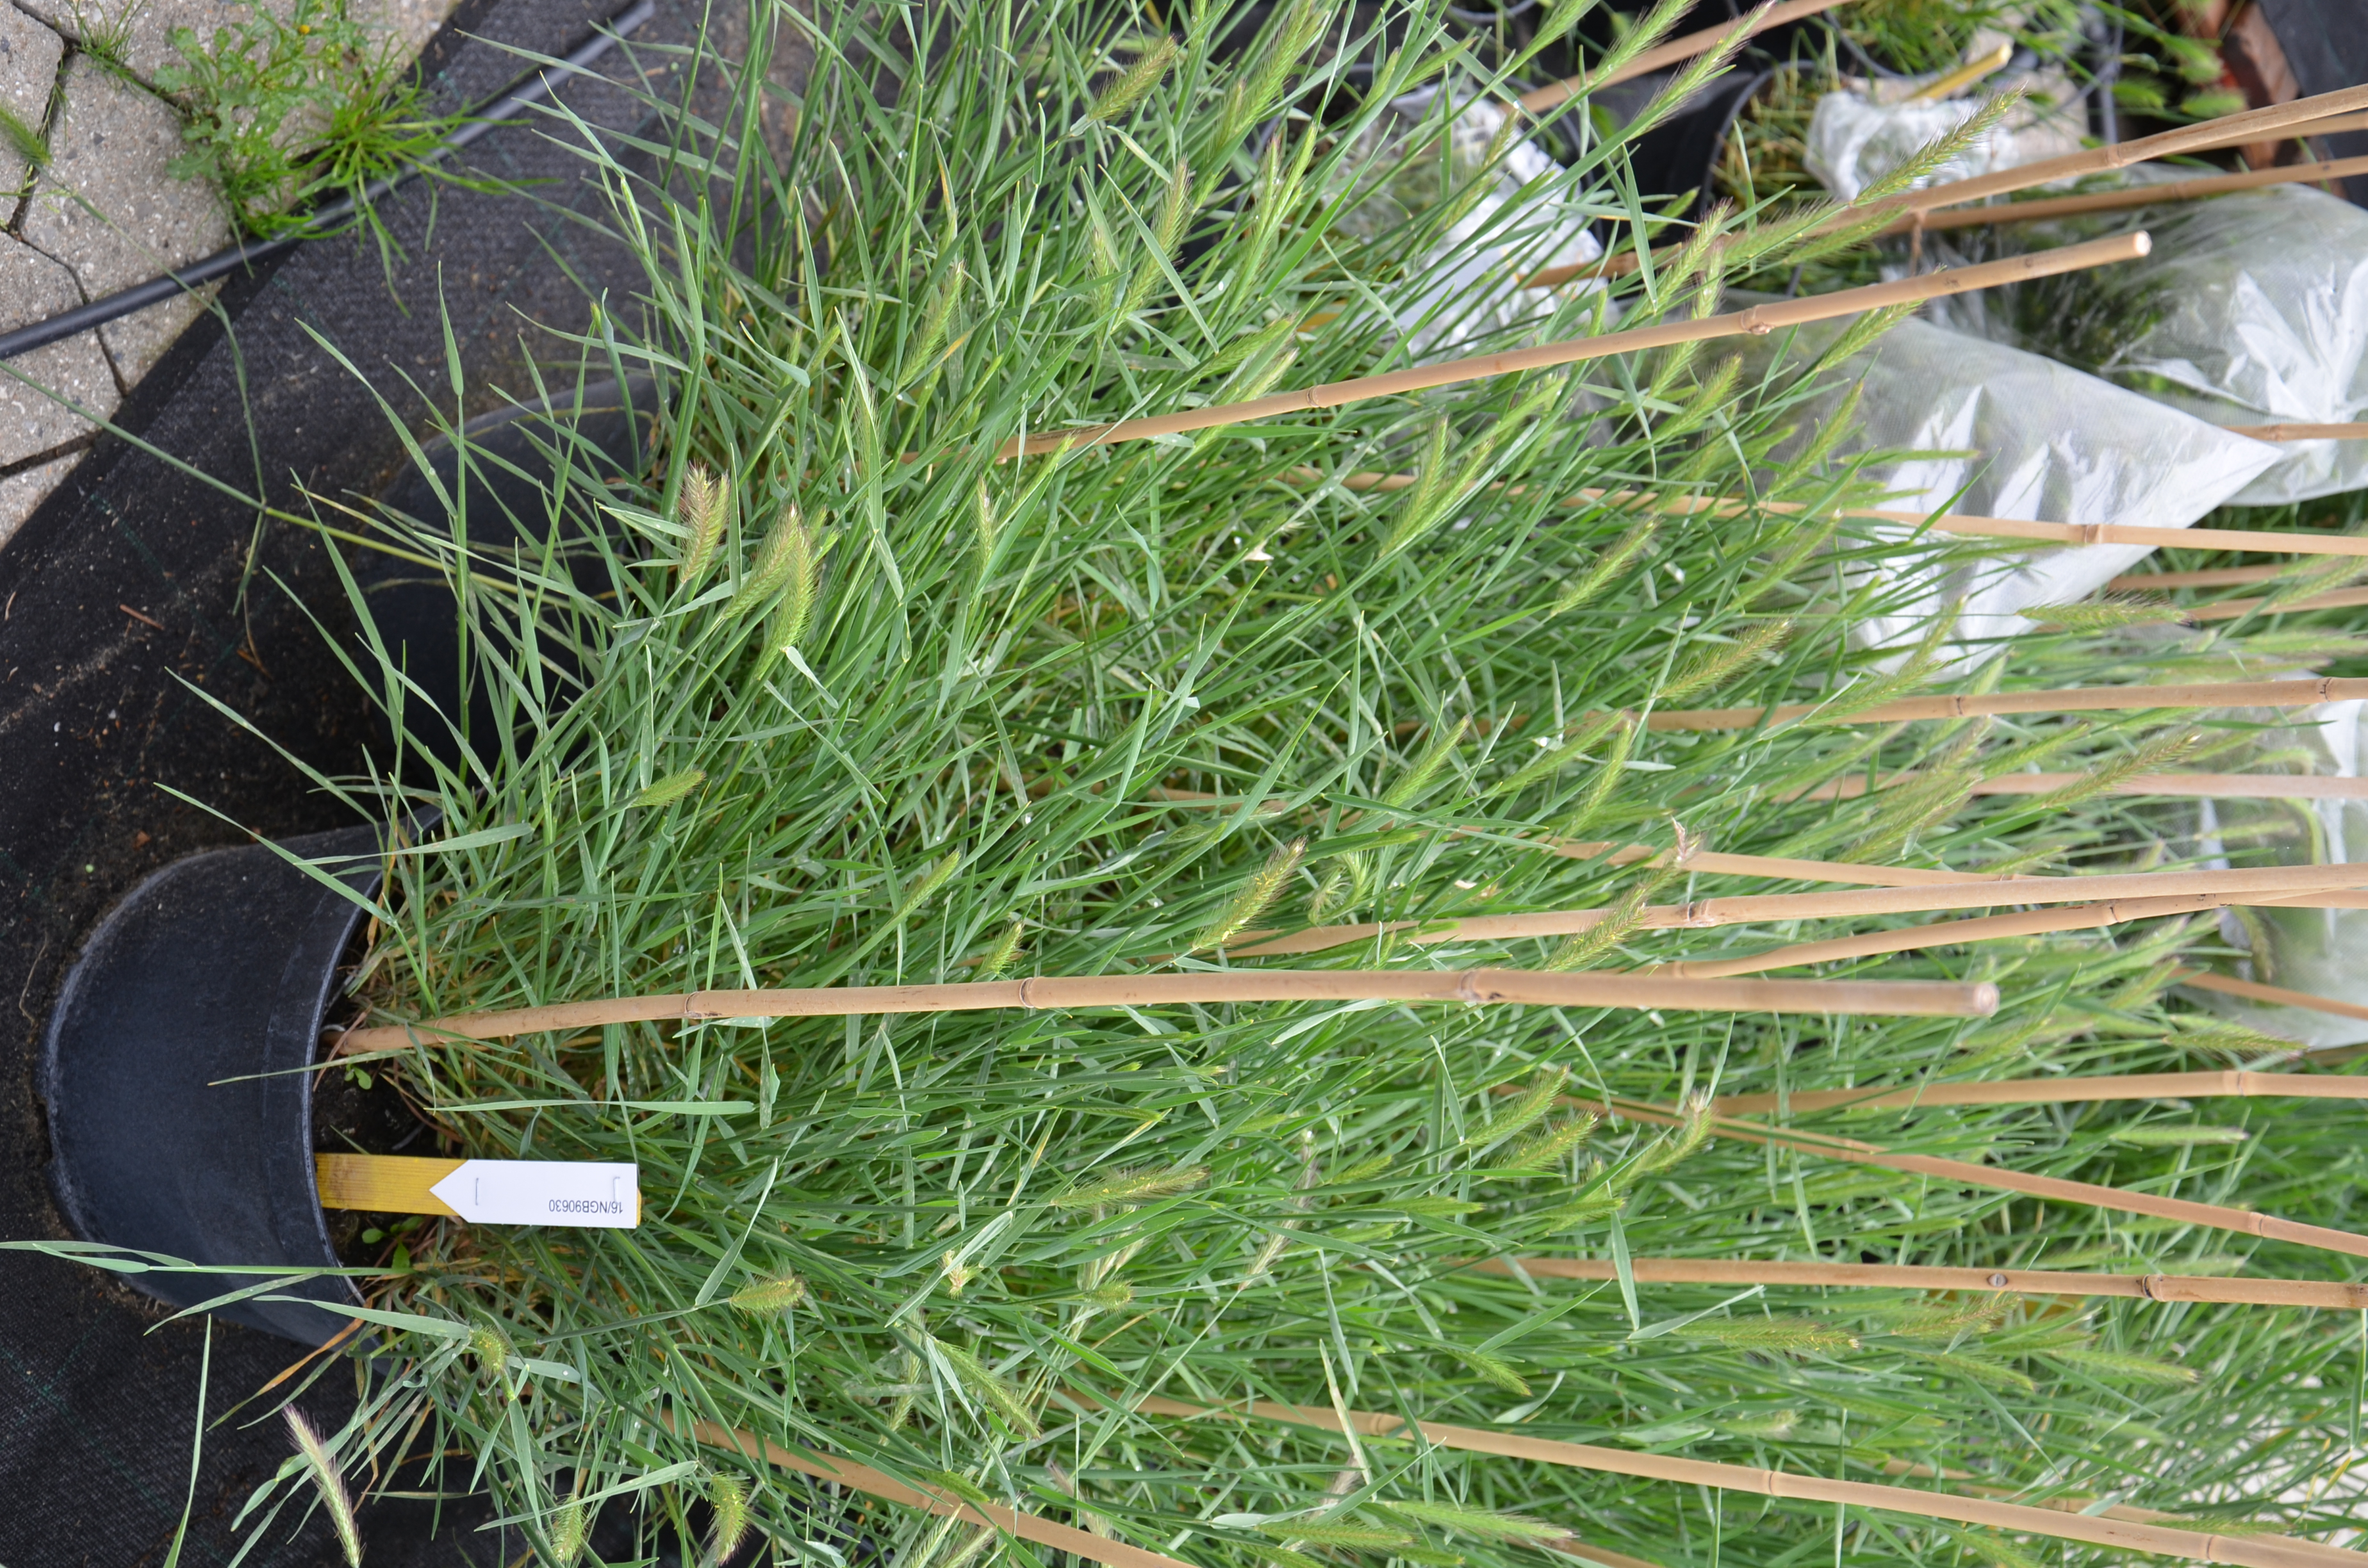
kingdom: Plantae
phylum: Tracheophyta
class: Liliopsida
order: Poales
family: Poaceae
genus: Hordeum
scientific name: Hordeum fuegianum
